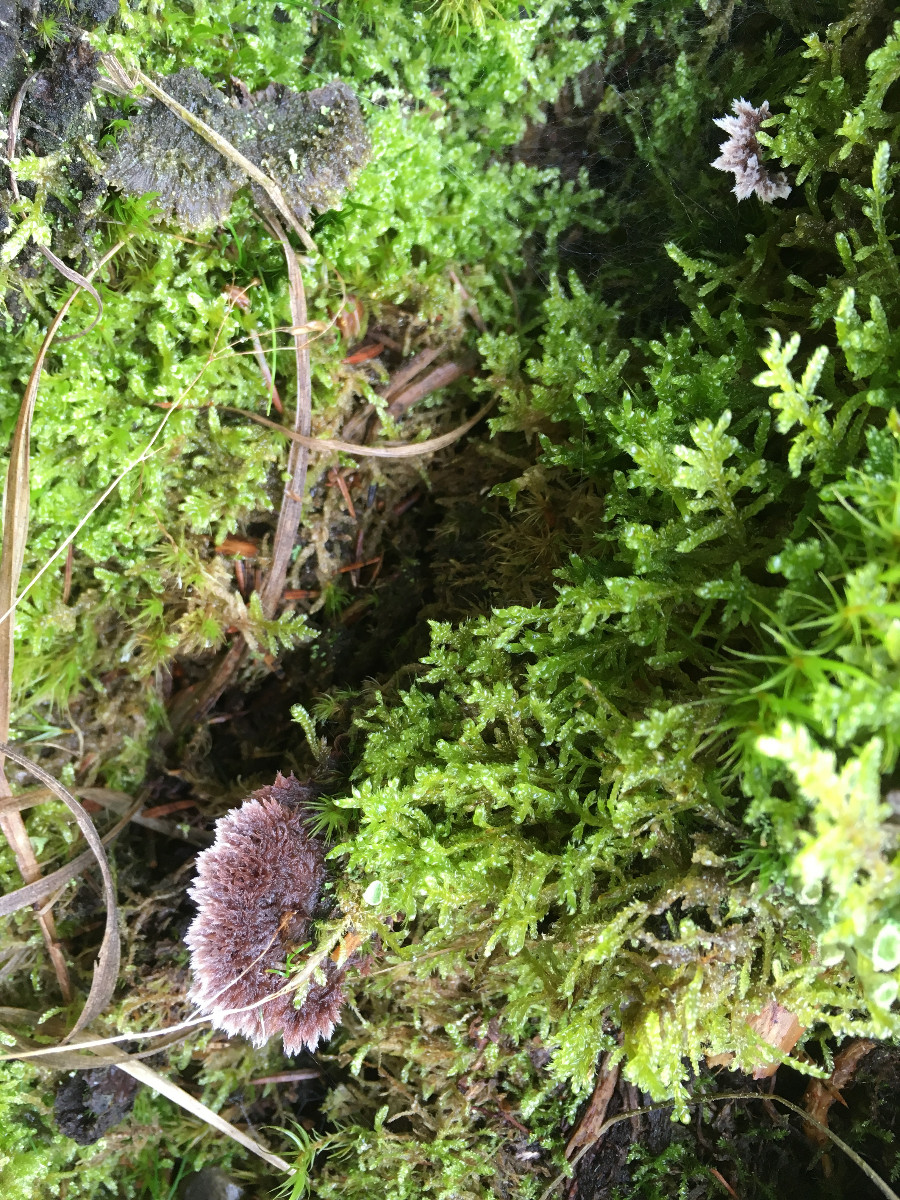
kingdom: Fungi
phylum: Basidiomycota
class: Agaricomycetes
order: Thelephorales
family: Thelephoraceae
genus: Thelephora
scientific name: Thelephora terrestris
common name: fliget frynsesvamp
